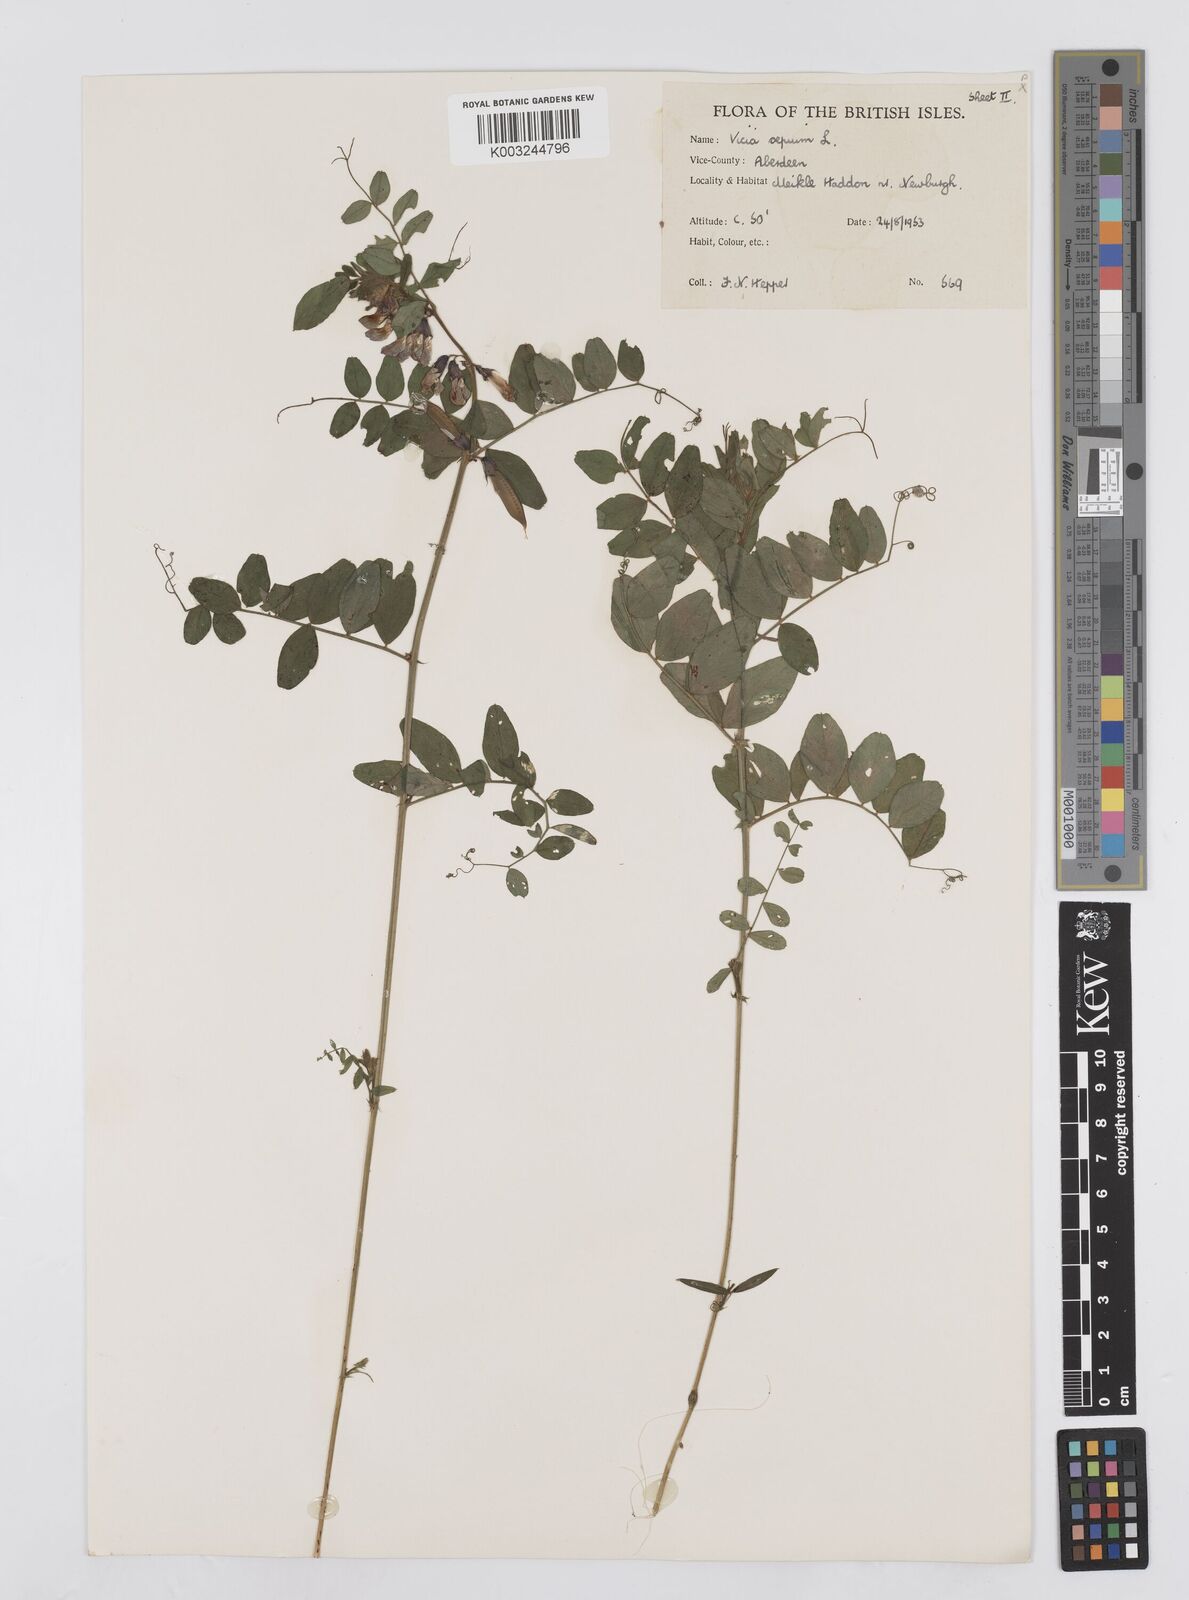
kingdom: Plantae
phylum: Tracheophyta
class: Magnoliopsida
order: Fabales
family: Fabaceae
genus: Vicia
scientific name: Vicia sepium
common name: Bush vetch
